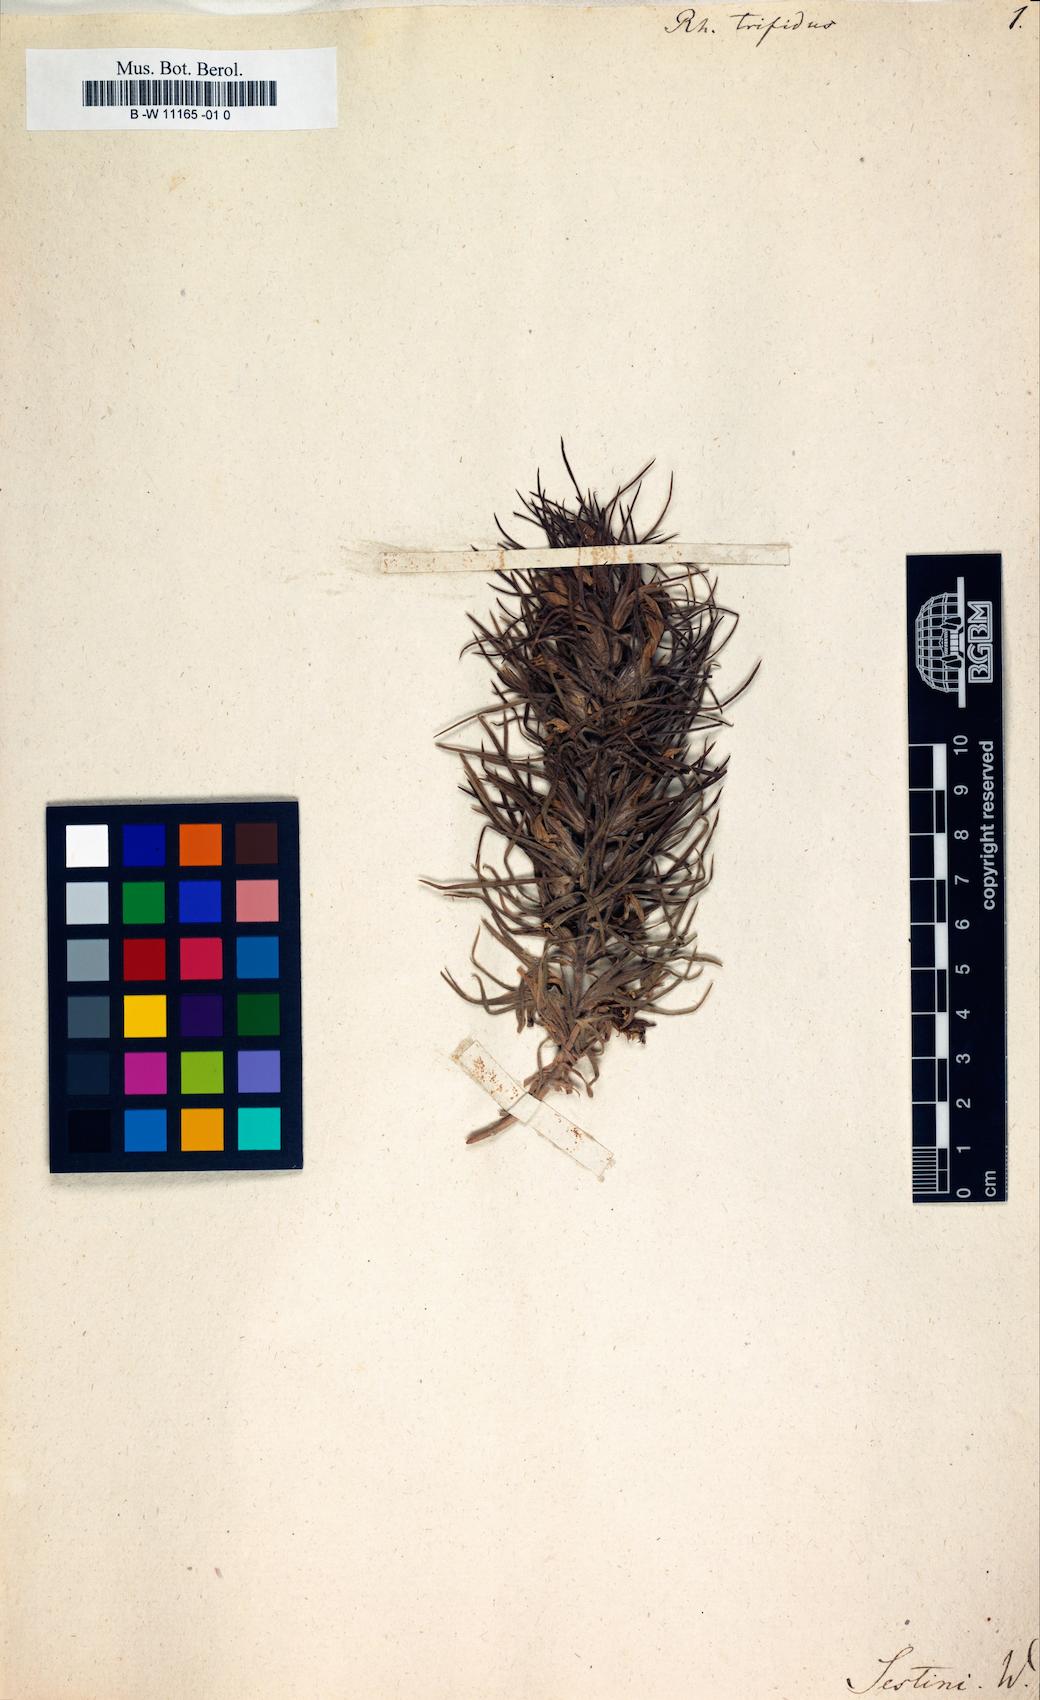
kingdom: Plantae
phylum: Tracheophyta
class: Magnoliopsida
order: Lamiales
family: Orobanchaceae
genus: Bungea
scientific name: Bungea trifida
